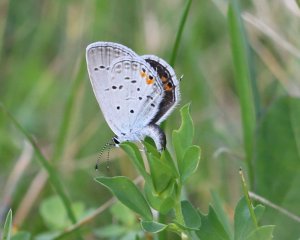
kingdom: Animalia
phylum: Arthropoda
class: Insecta
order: Lepidoptera
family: Lycaenidae
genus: Elkalyce
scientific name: Elkalyce comyntas
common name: Eastern Tailed-Blue
